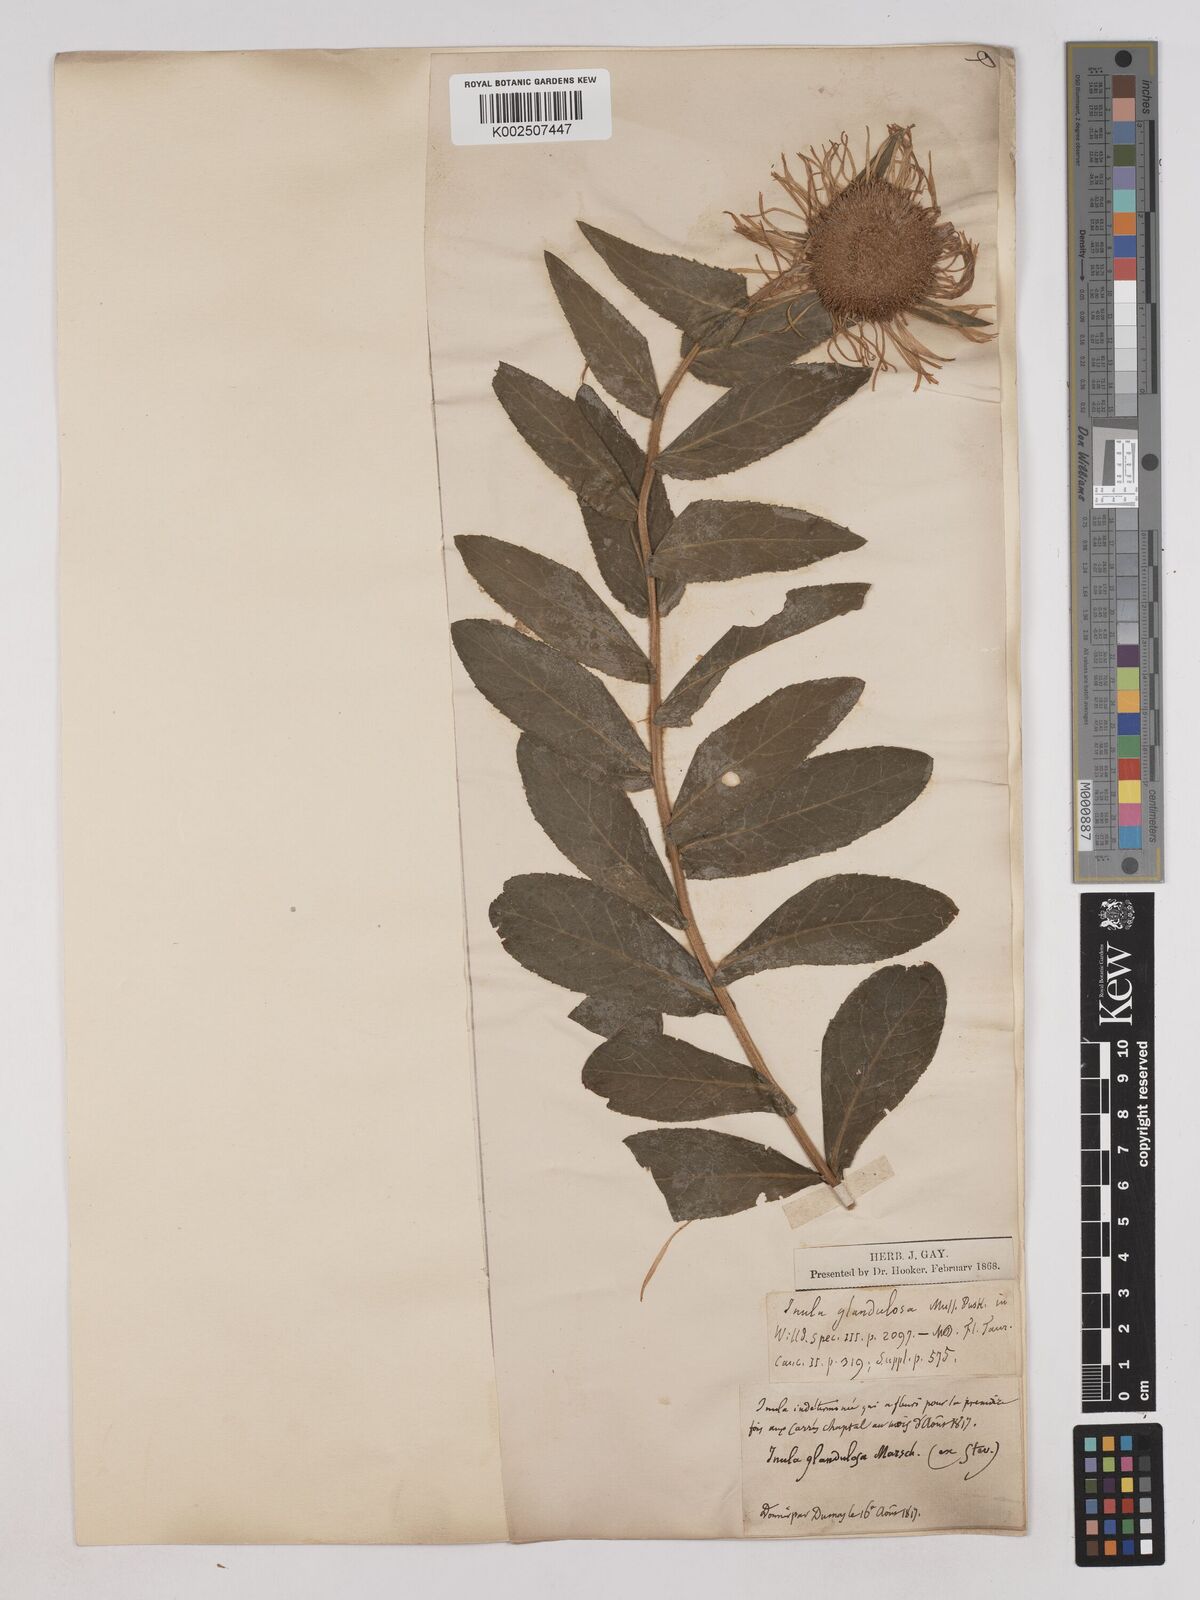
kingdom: Plantae
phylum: Tracheophyta
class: Magnoliopsida
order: Asterales
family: Asteraceae
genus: Pentanema
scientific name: Pentanema orientale
